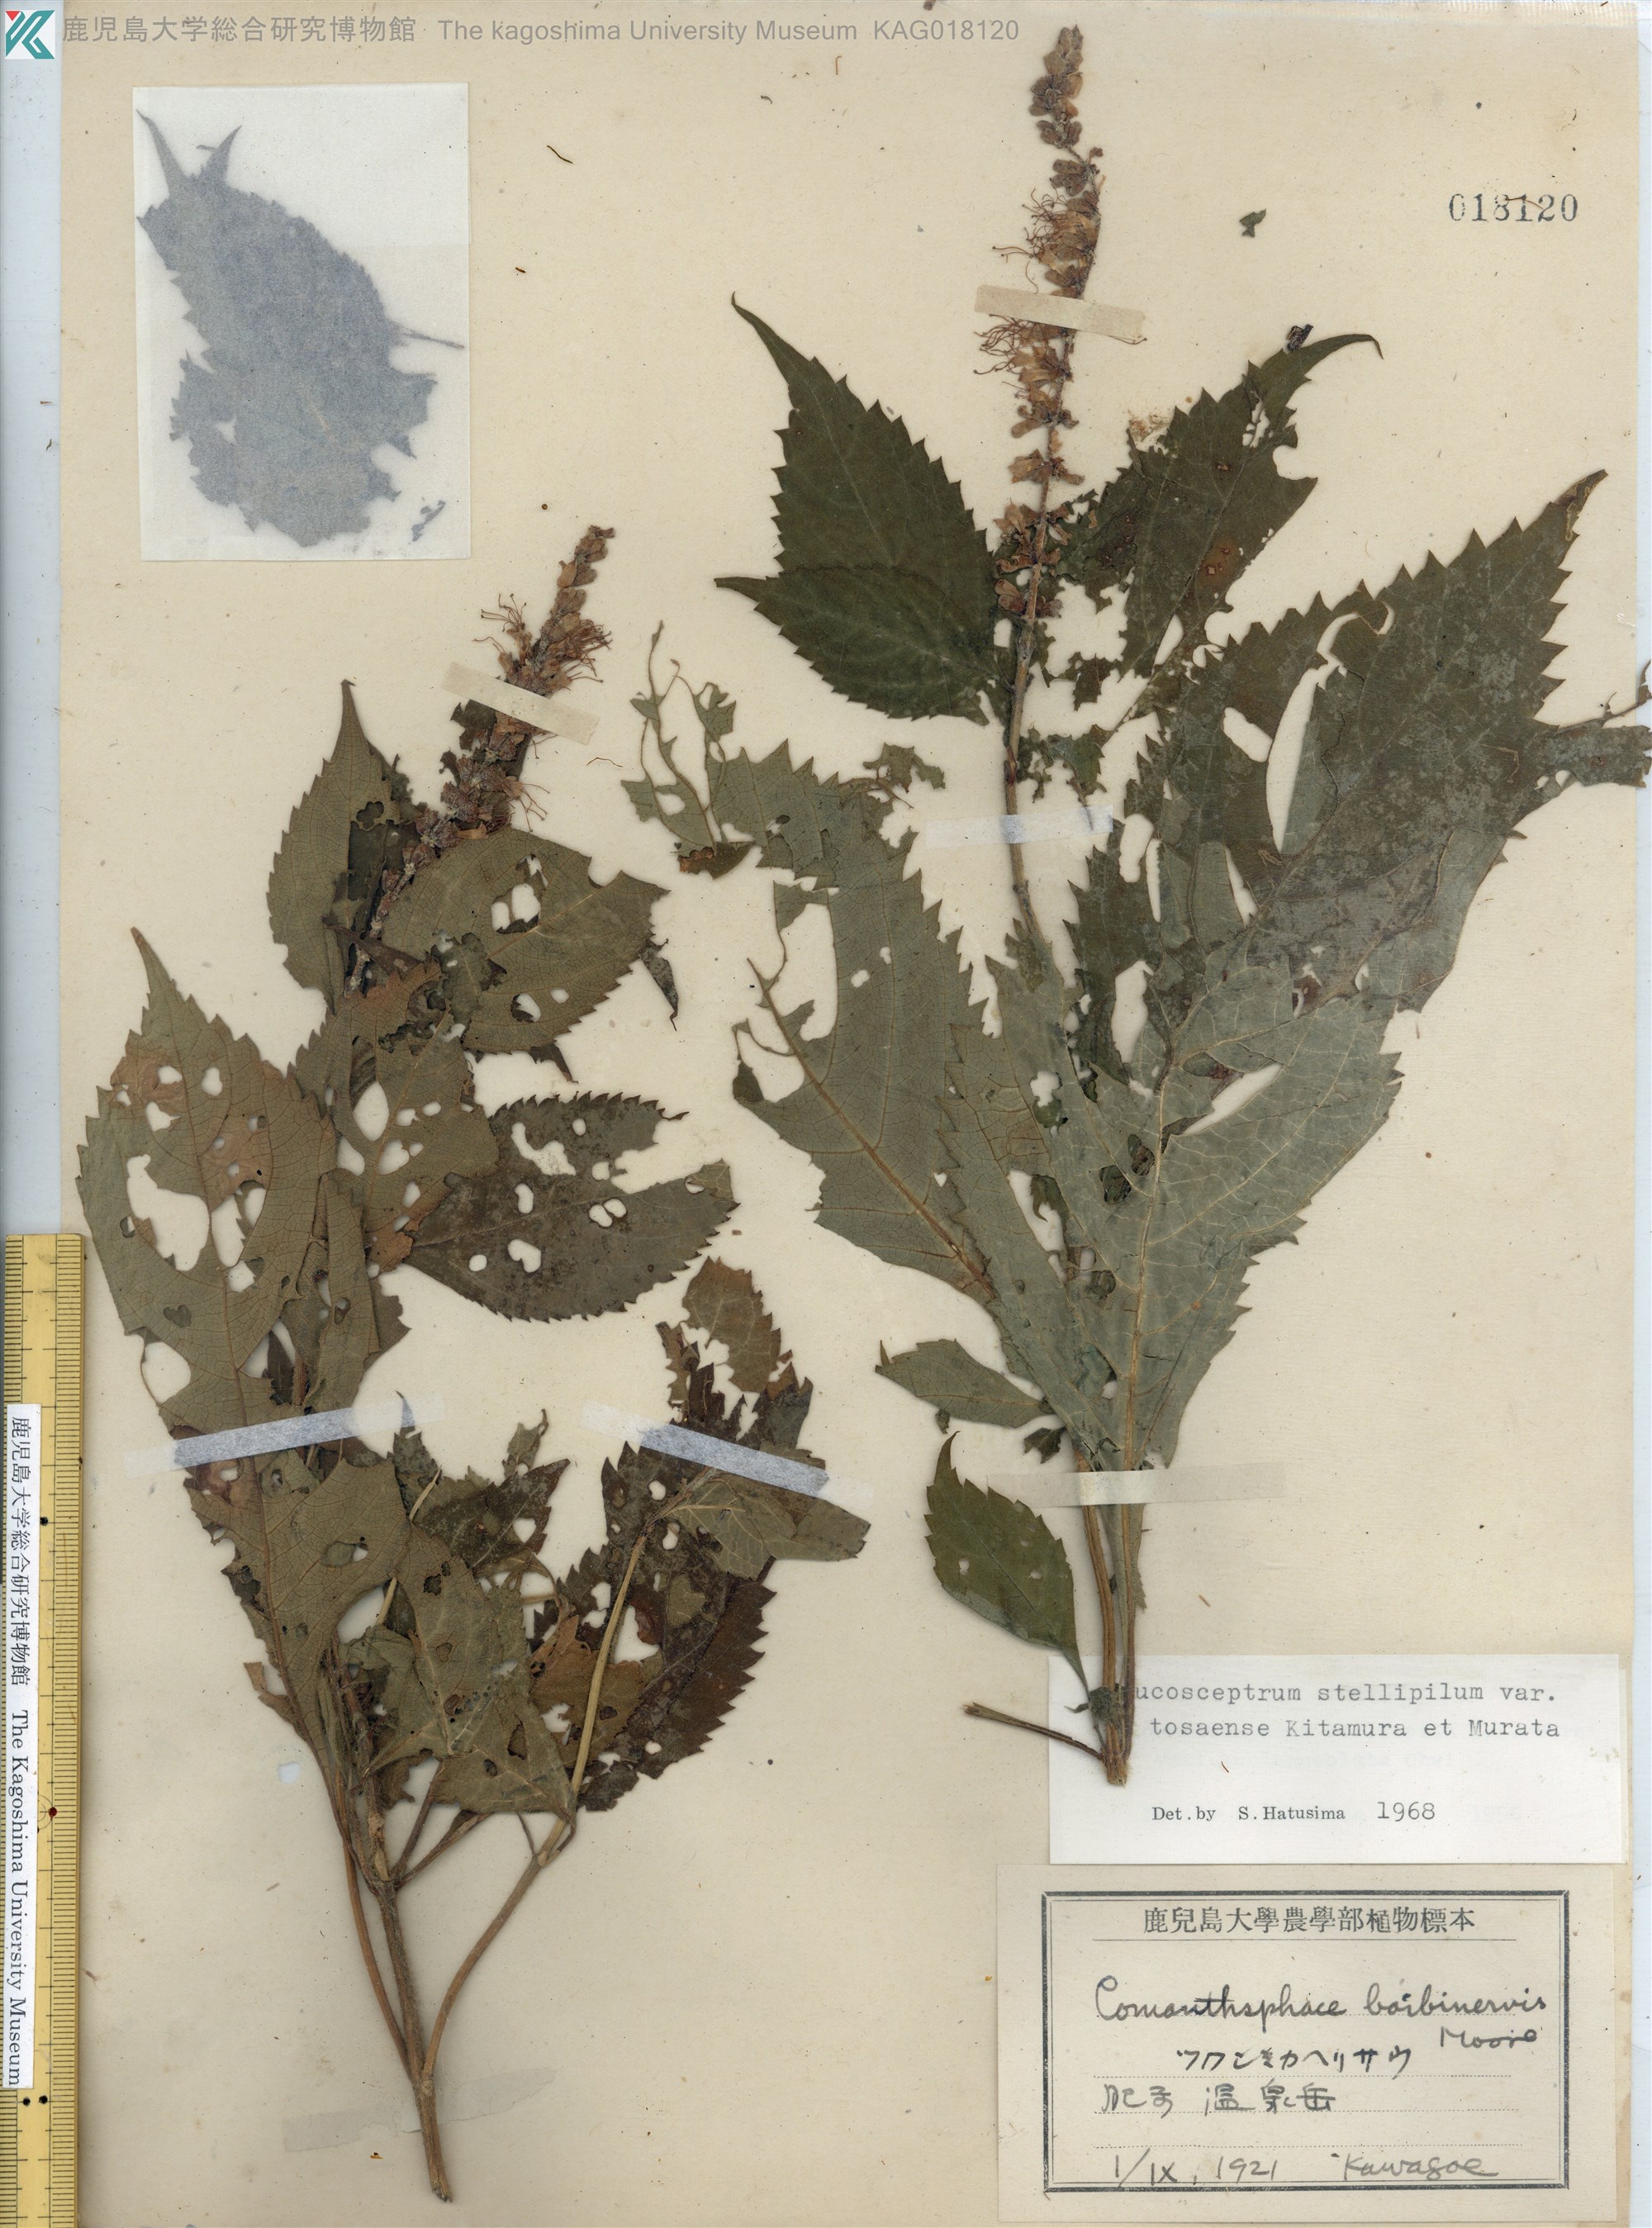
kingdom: Plantae
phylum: Tracheophyta
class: Magnoliopsida
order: Lamiales
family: Lamiaceae
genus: Comanthosphace
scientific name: Comanthosphace japonica
